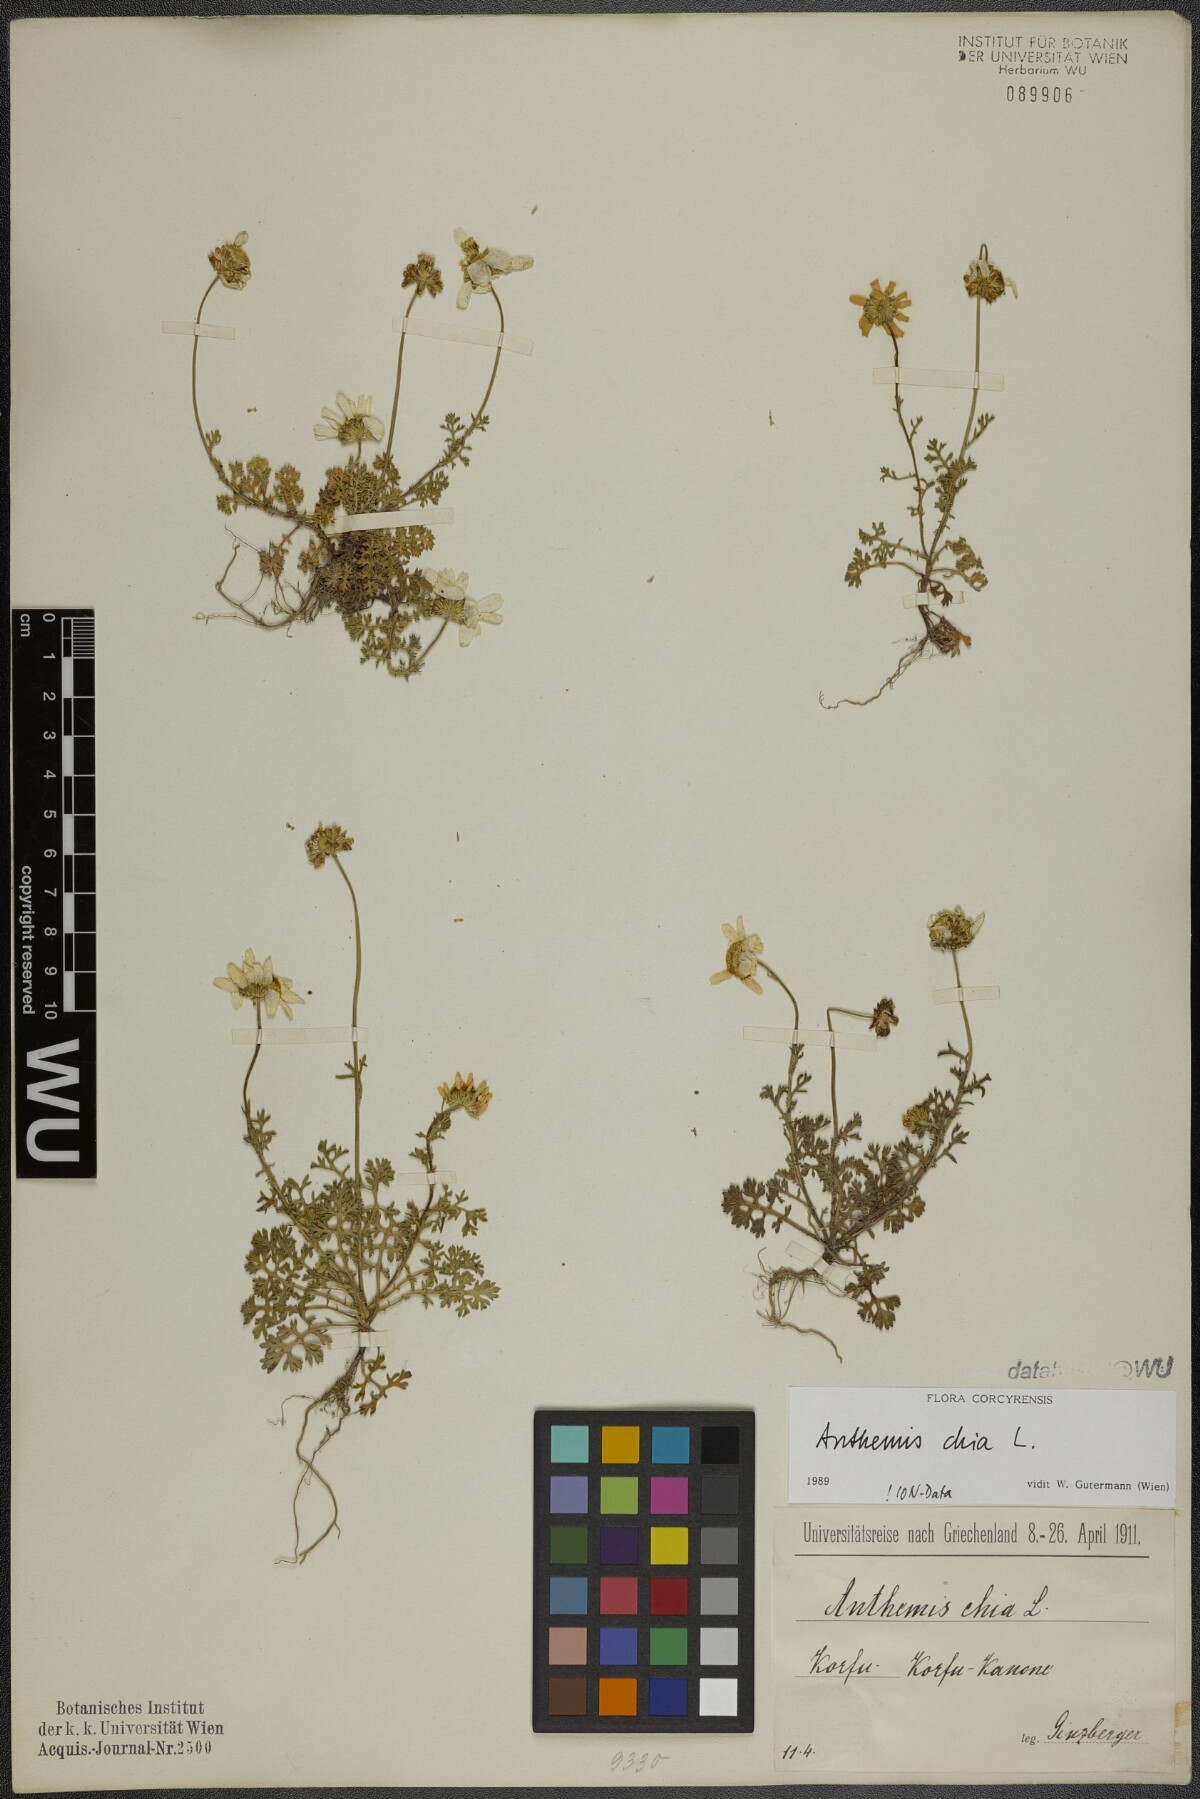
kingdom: Plantae
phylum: Tracheophyta
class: Magnoliopsida
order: Asterales
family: Asteraceae
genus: Anthemis
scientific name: Anthemis chia
